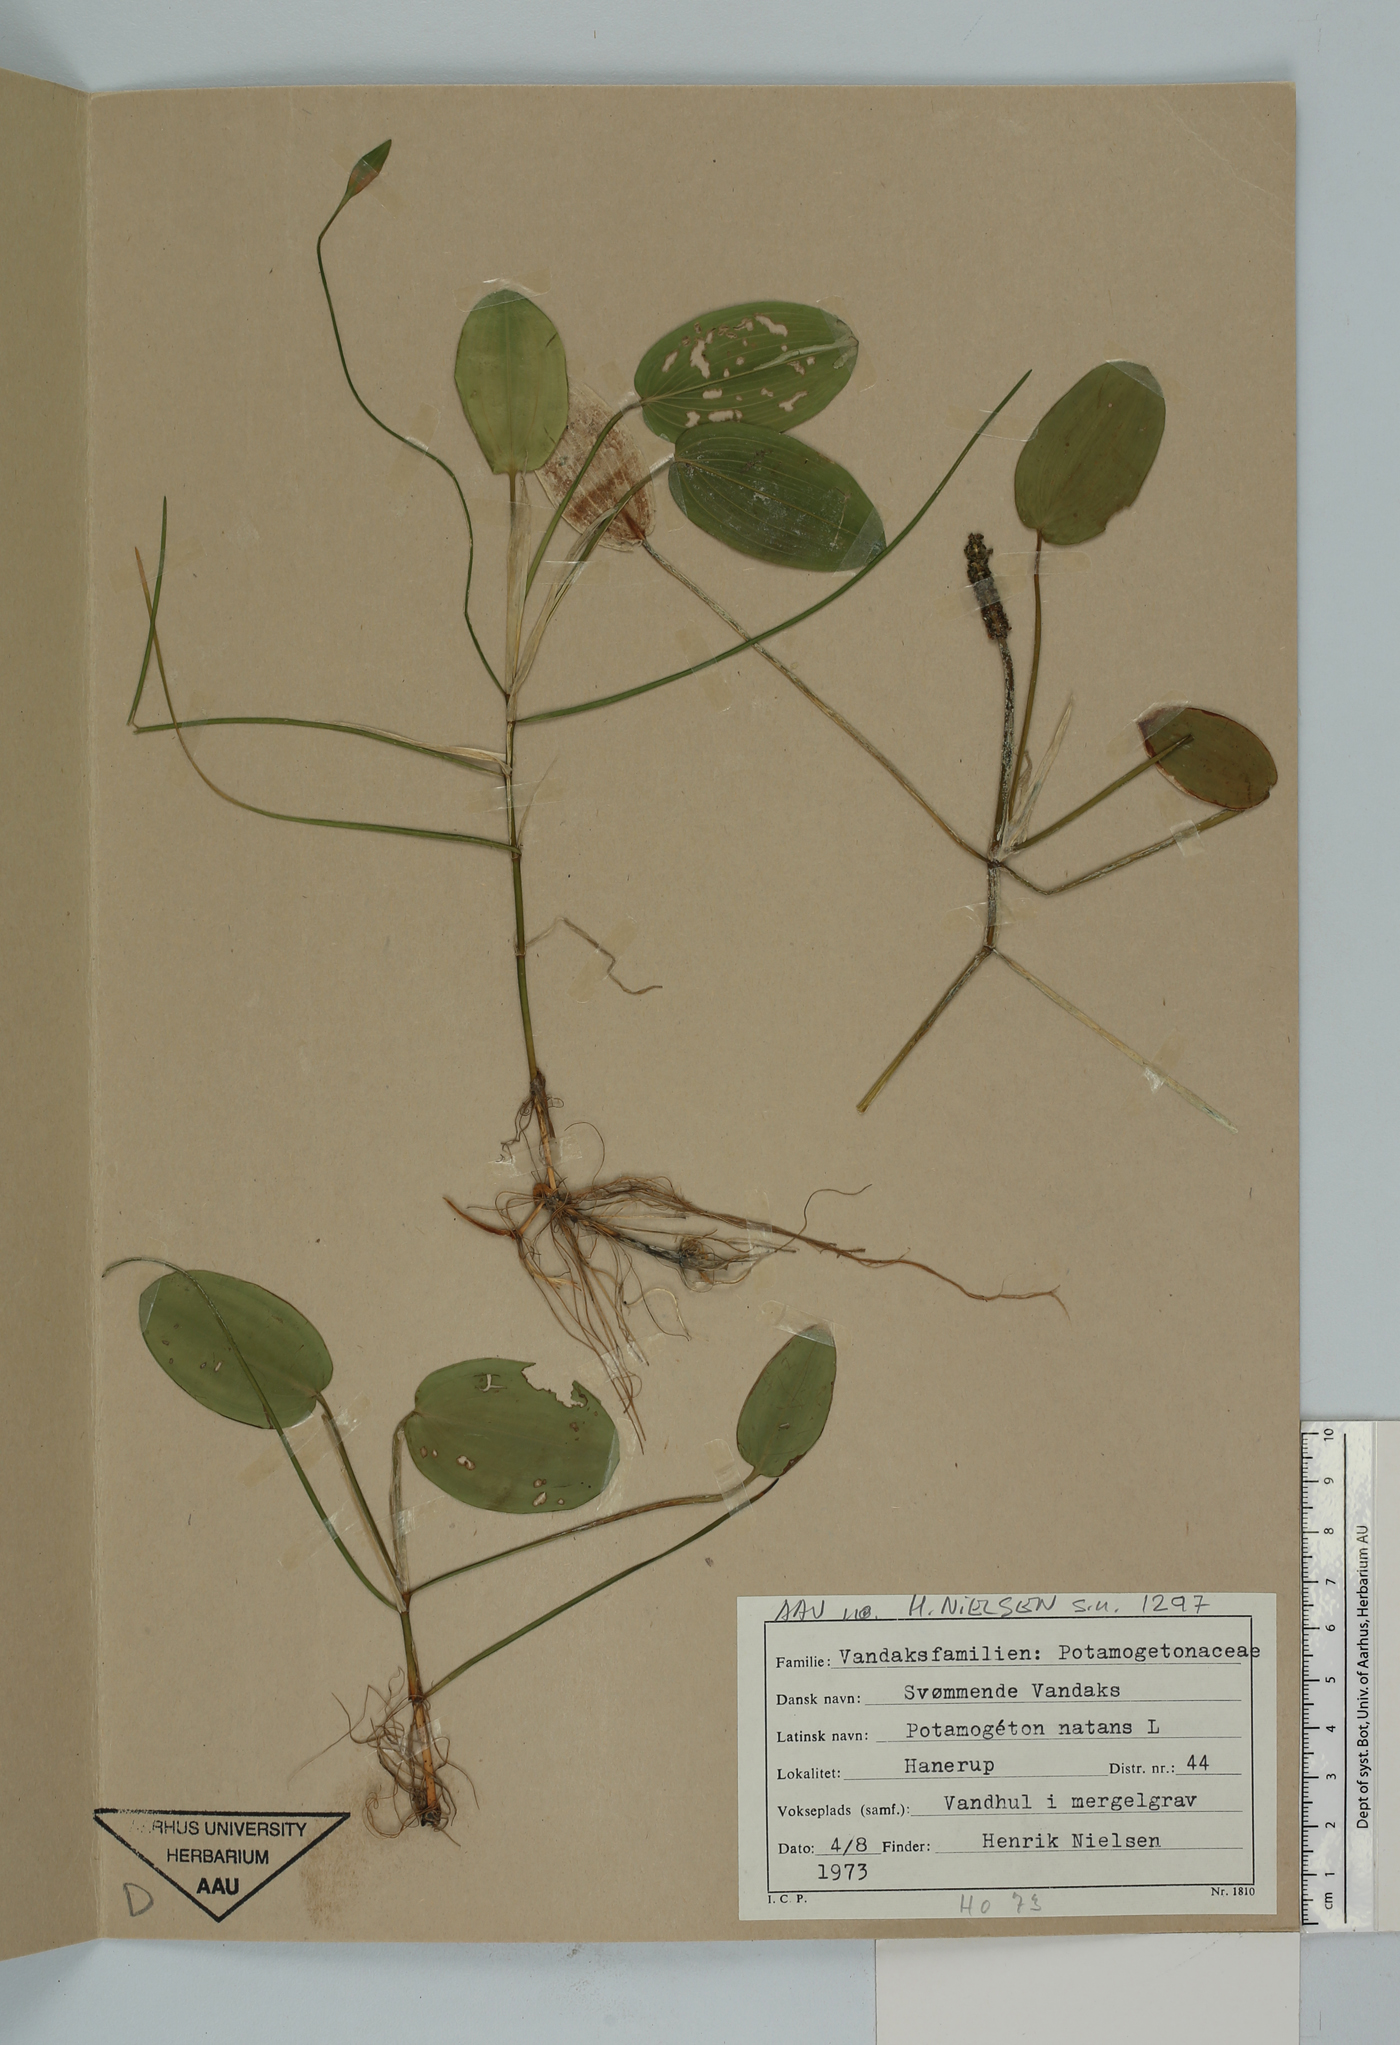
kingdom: Plantae
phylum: Tracheophyta
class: Liliopsida
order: Alismatales
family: Potamogetonaceae
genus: Potamogeton
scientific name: Potamogeton natans
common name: Broad-leaved pondweed
